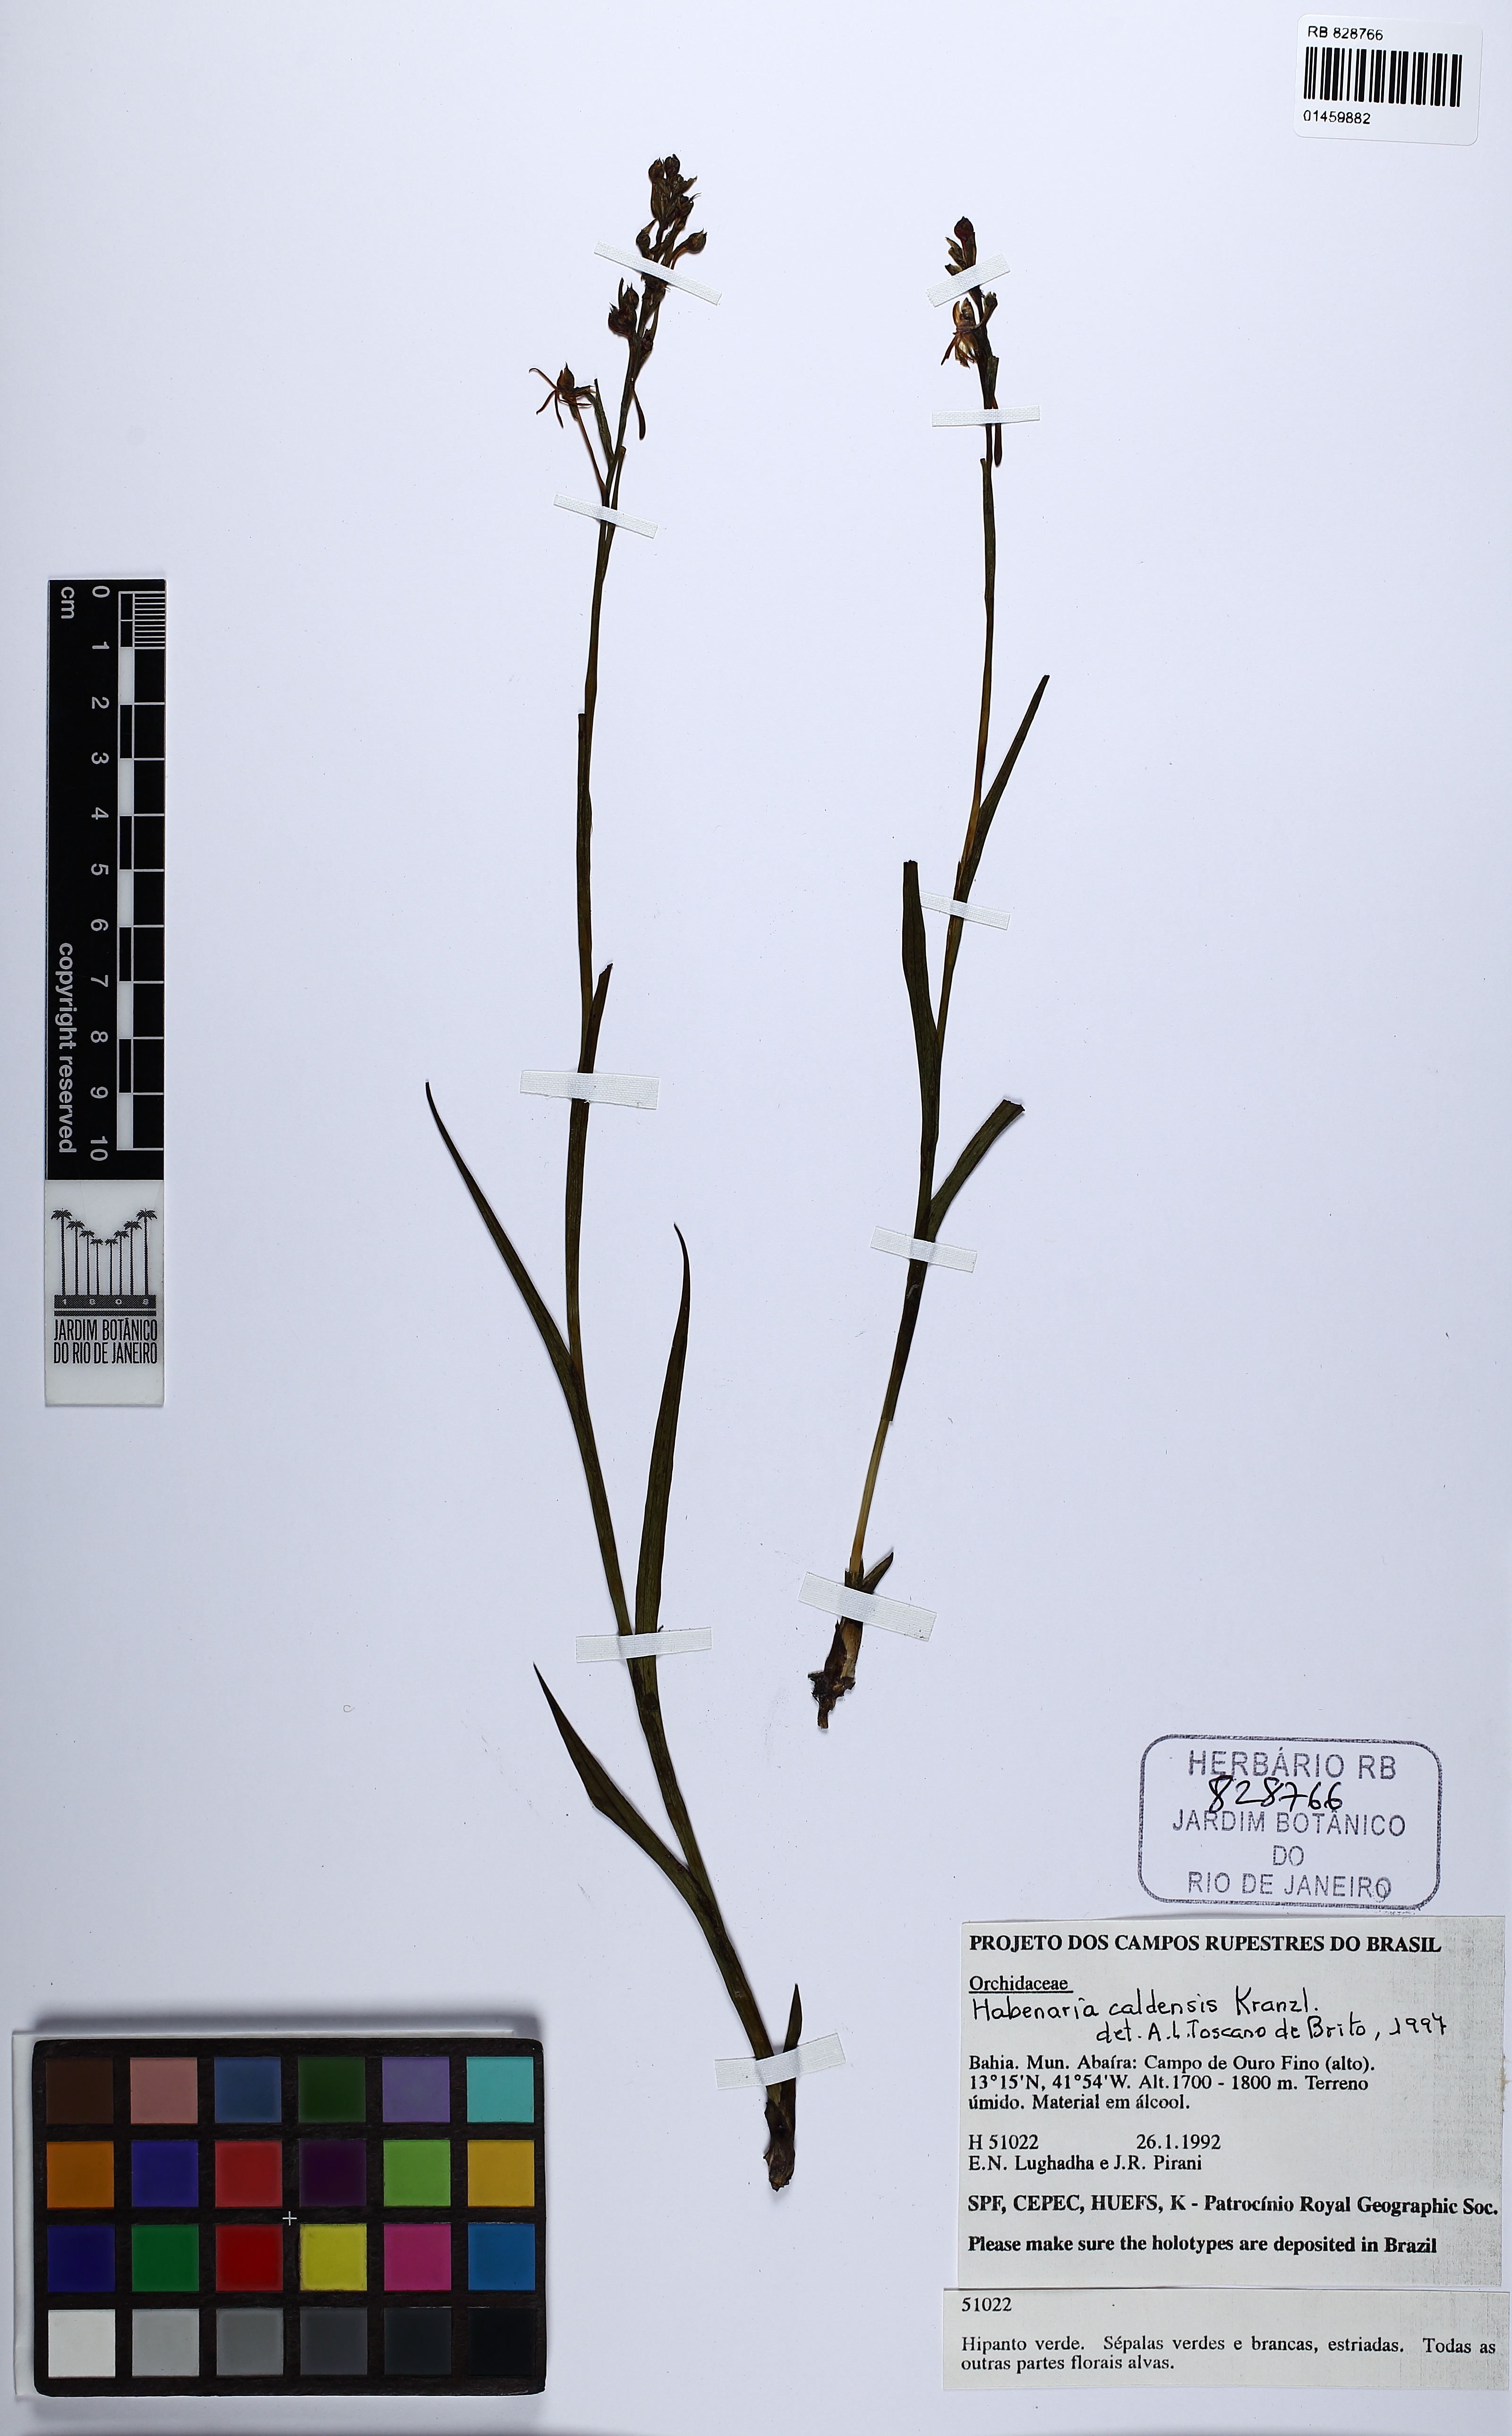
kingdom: Plantae
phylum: Tracheophyta
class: Liliopsida
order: Asparagales
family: Orchidaceae
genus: Habenaria
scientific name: Habenaria caldensis
